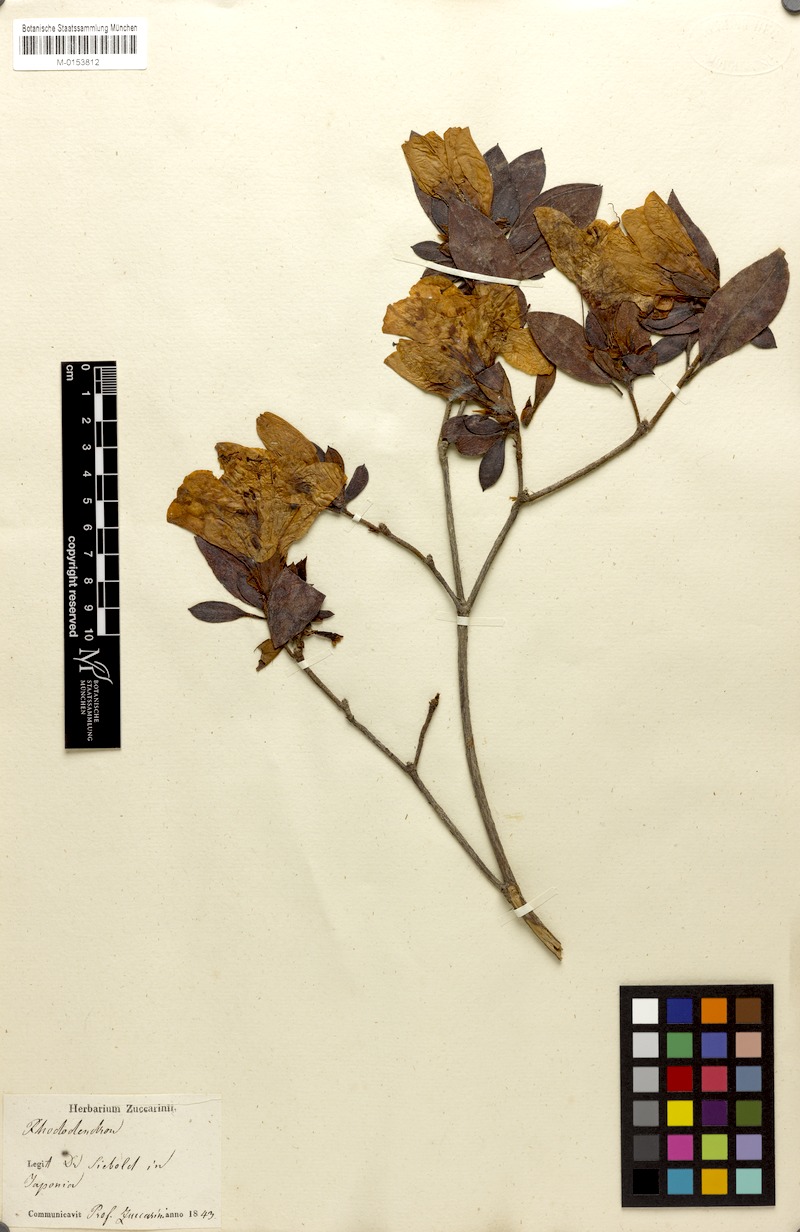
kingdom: Plantae
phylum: Tracheophyta
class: Magnoliopsida
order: Ericales
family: Ericaceae
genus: Rhododendron
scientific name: Rhododendron mucronatum
